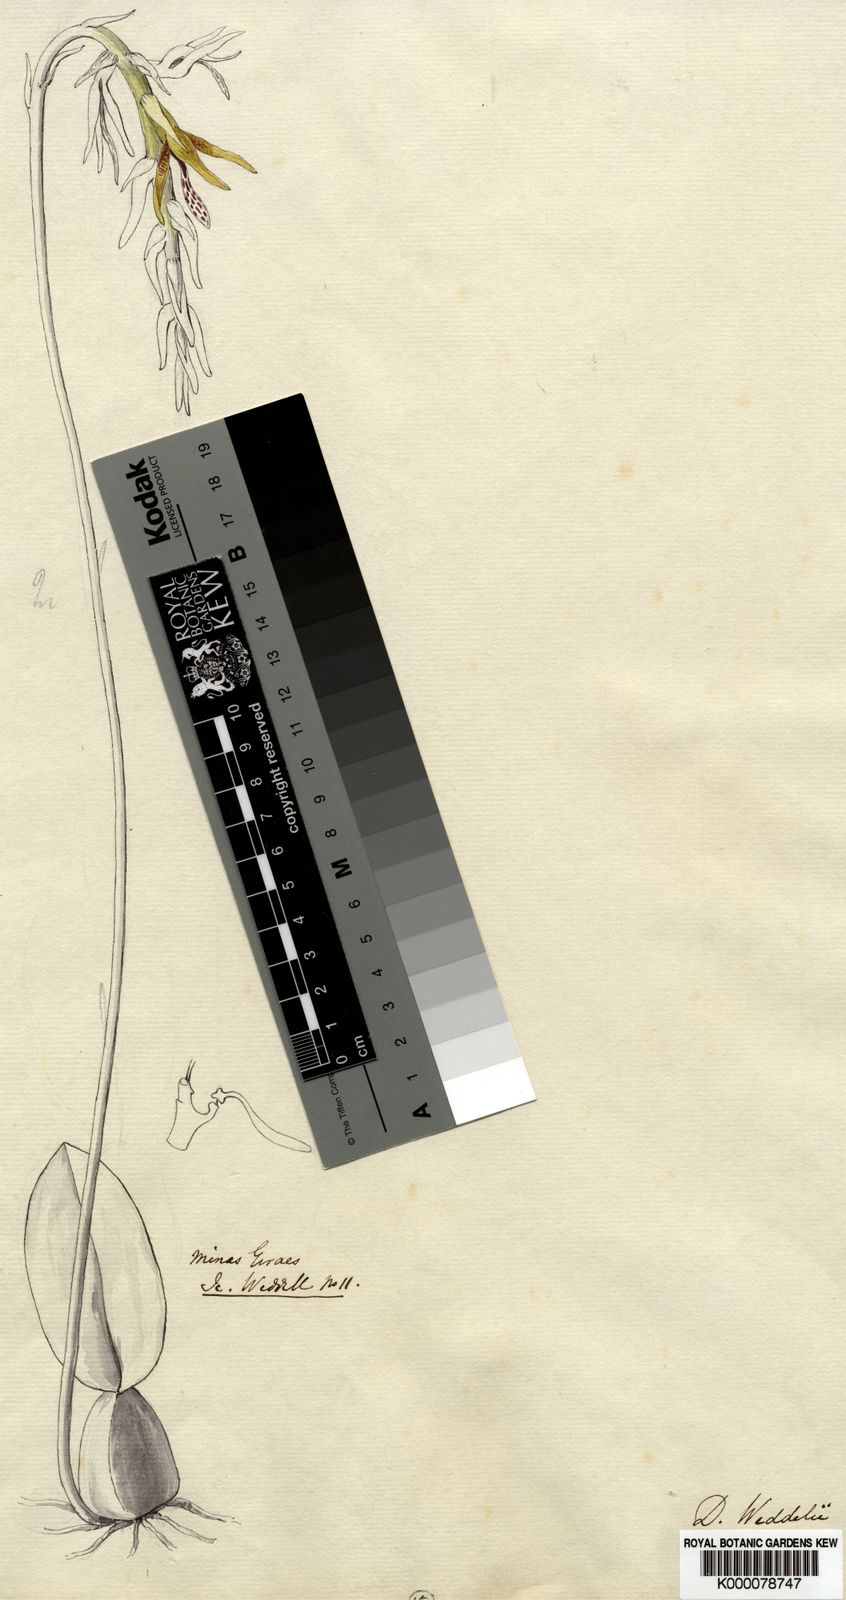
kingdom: Plantae
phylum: Tracheophyta
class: Liliopsida
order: Asparagales
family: Orchidaceae
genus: Bulbophyllum
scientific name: Bulbophyllum weddellii
